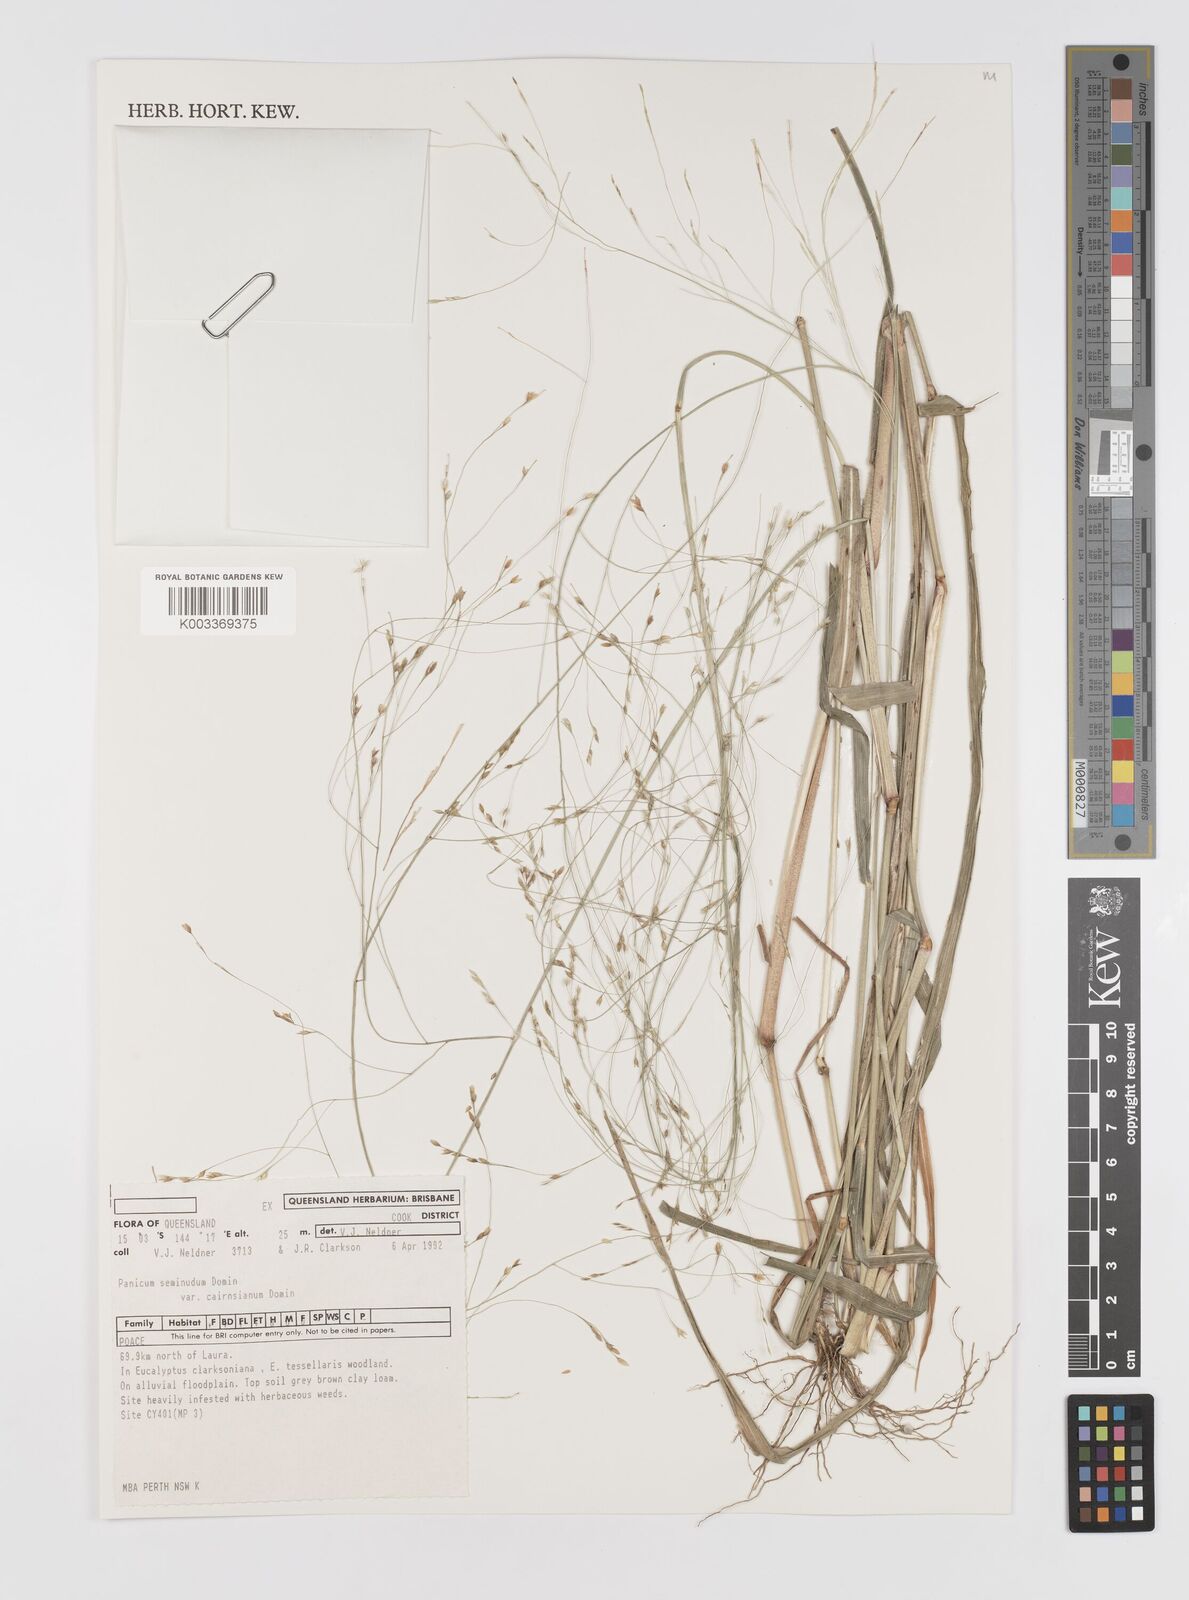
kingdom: Plantae
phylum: Tracheophyta
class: Liliopsida
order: Poales
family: Poaceae
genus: Panicum
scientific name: Panicum seminudum
